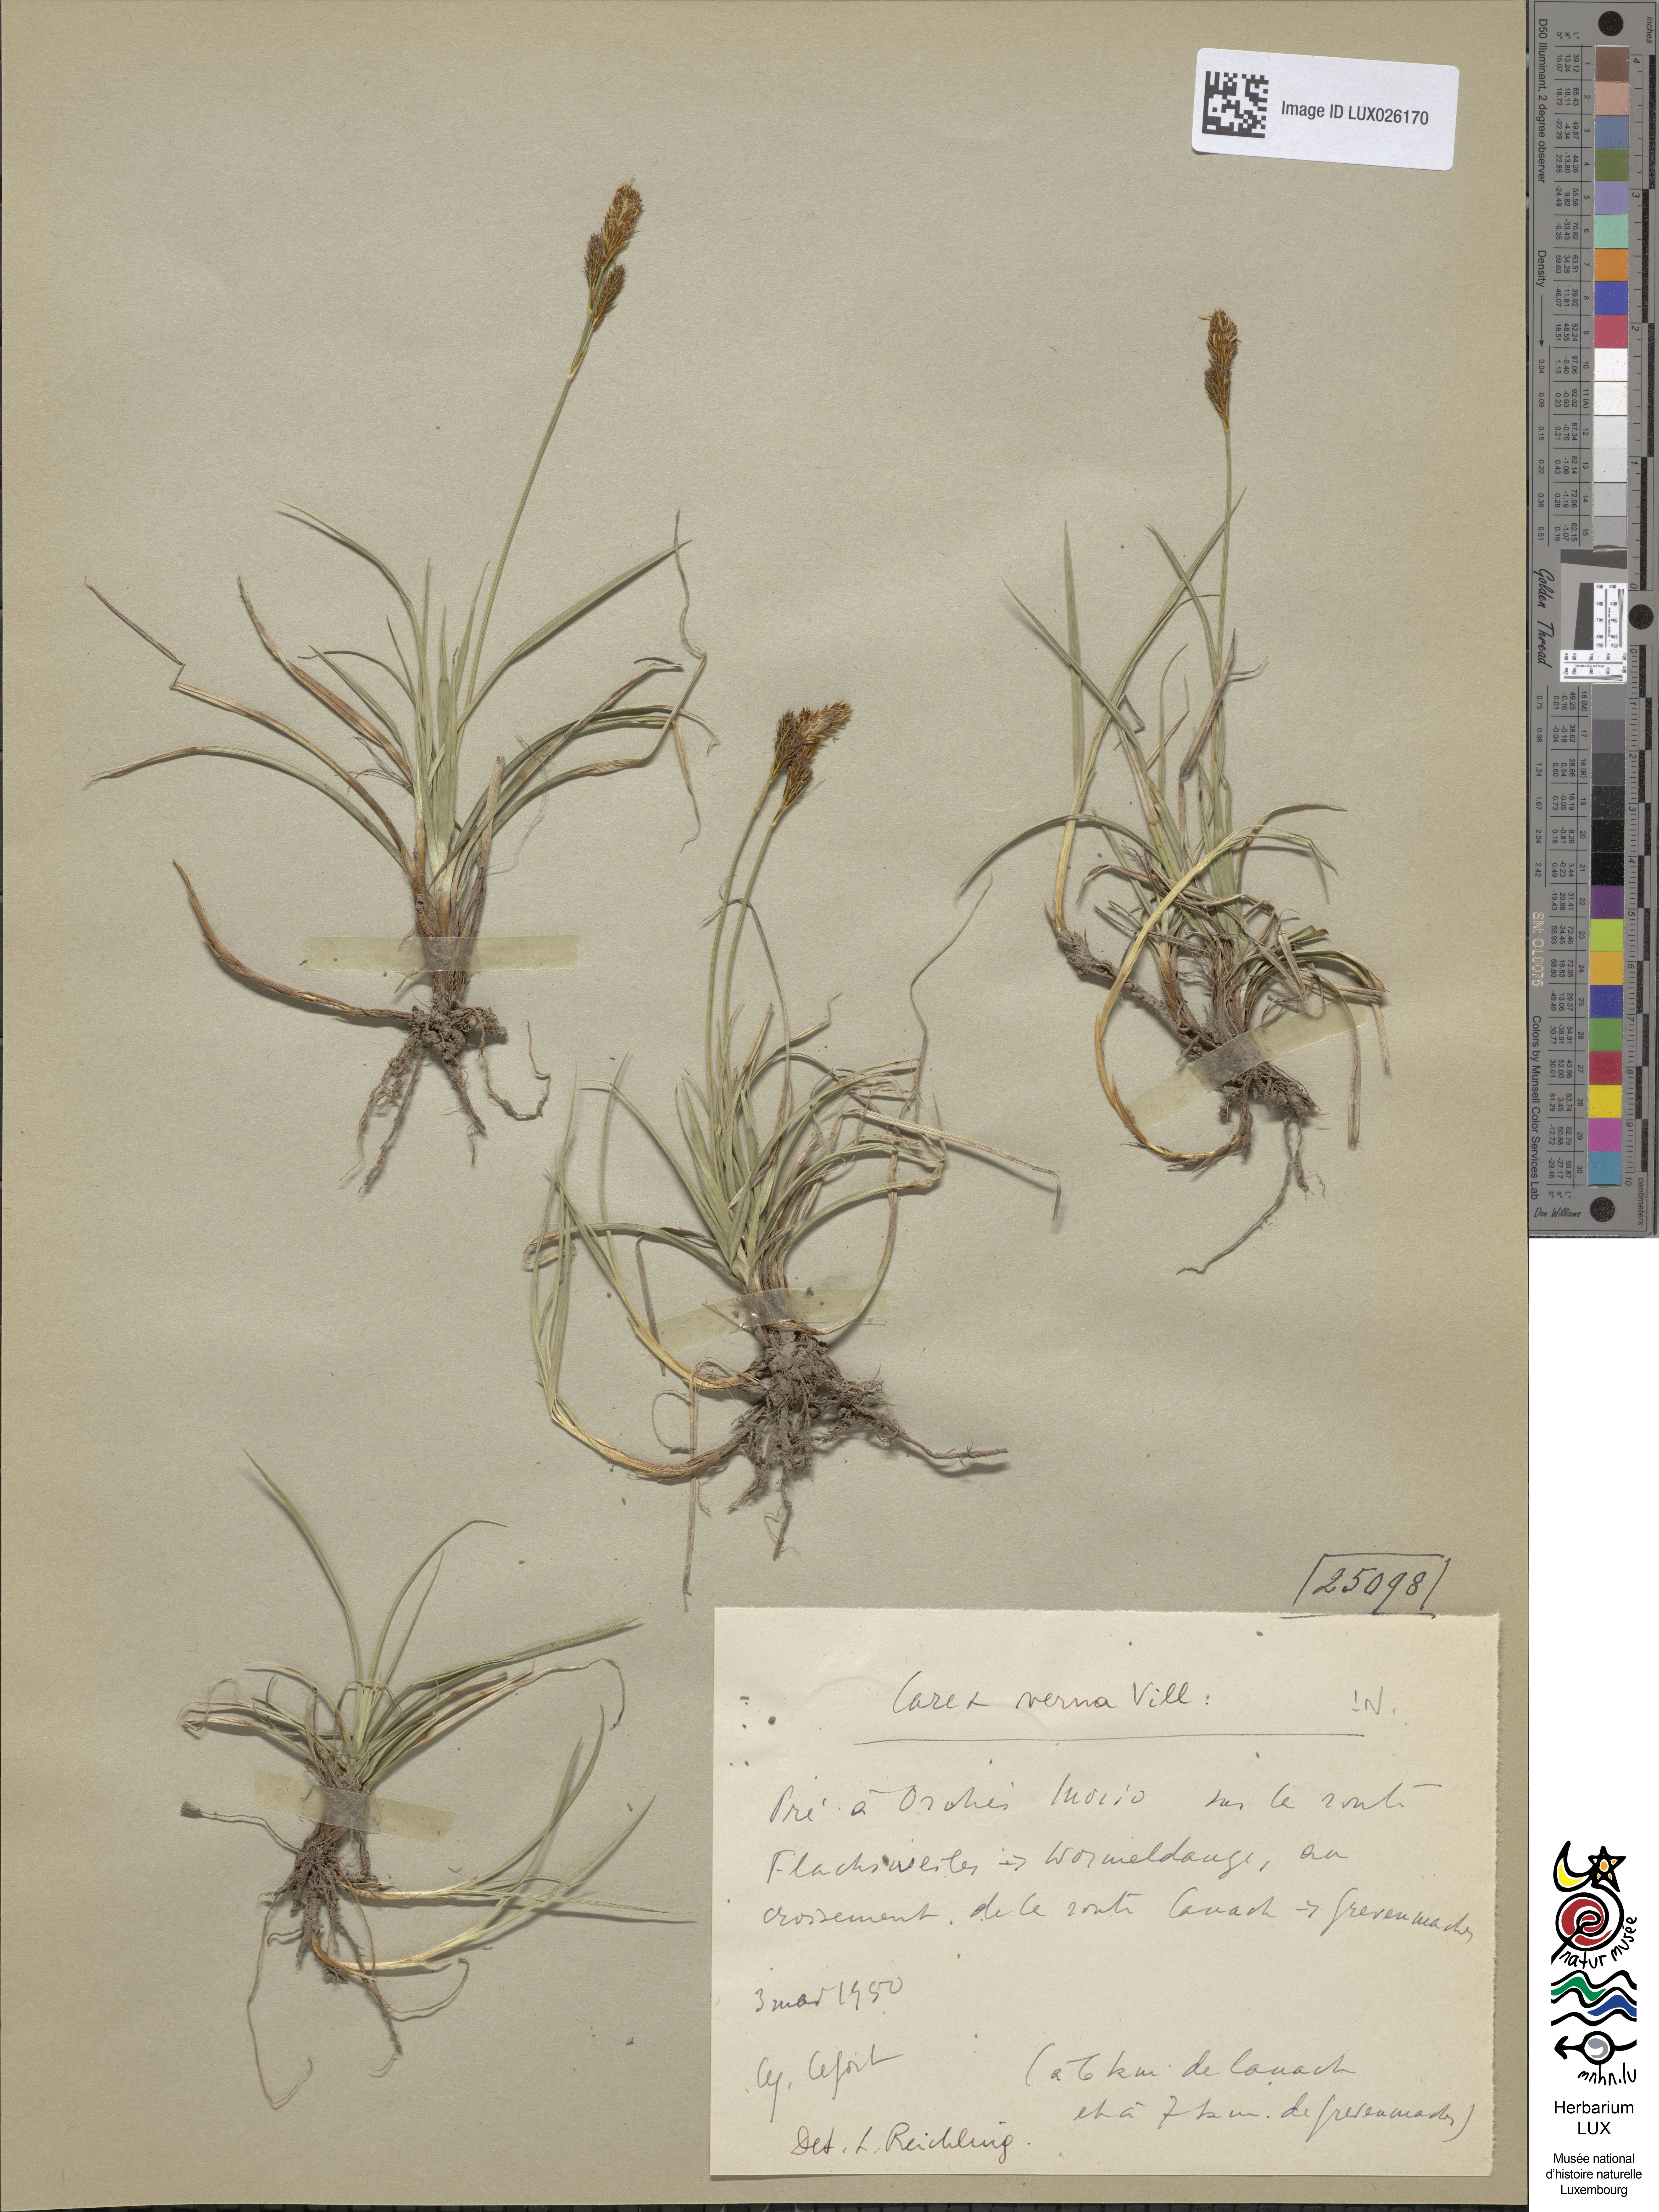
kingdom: Plantae
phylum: Tracheophyta
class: Liliopsida
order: Poales
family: Cyperaceae
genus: Carex
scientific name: Carex
